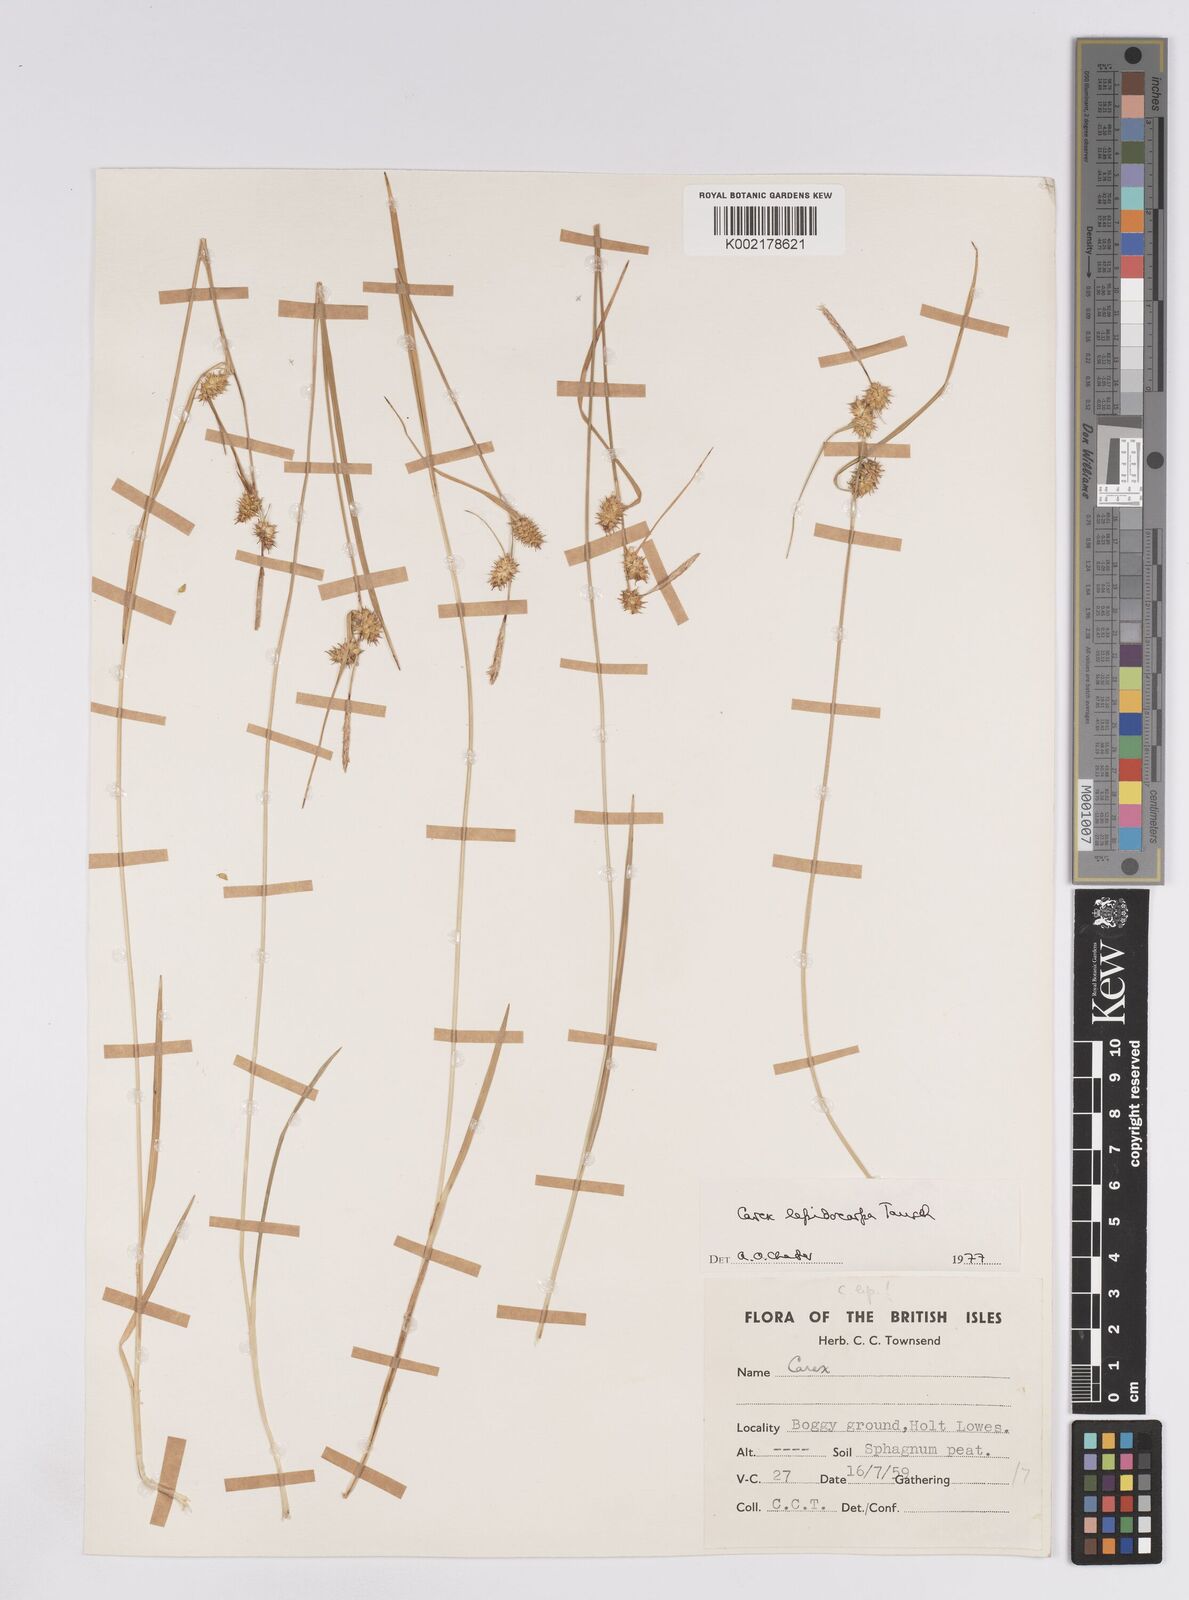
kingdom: Plantae
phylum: Tracheophyta
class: Liliopsida
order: Poales
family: Cyperaceae
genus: Carex
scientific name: Carex lepidocarpa
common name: Long-stalked yellow-sedge
